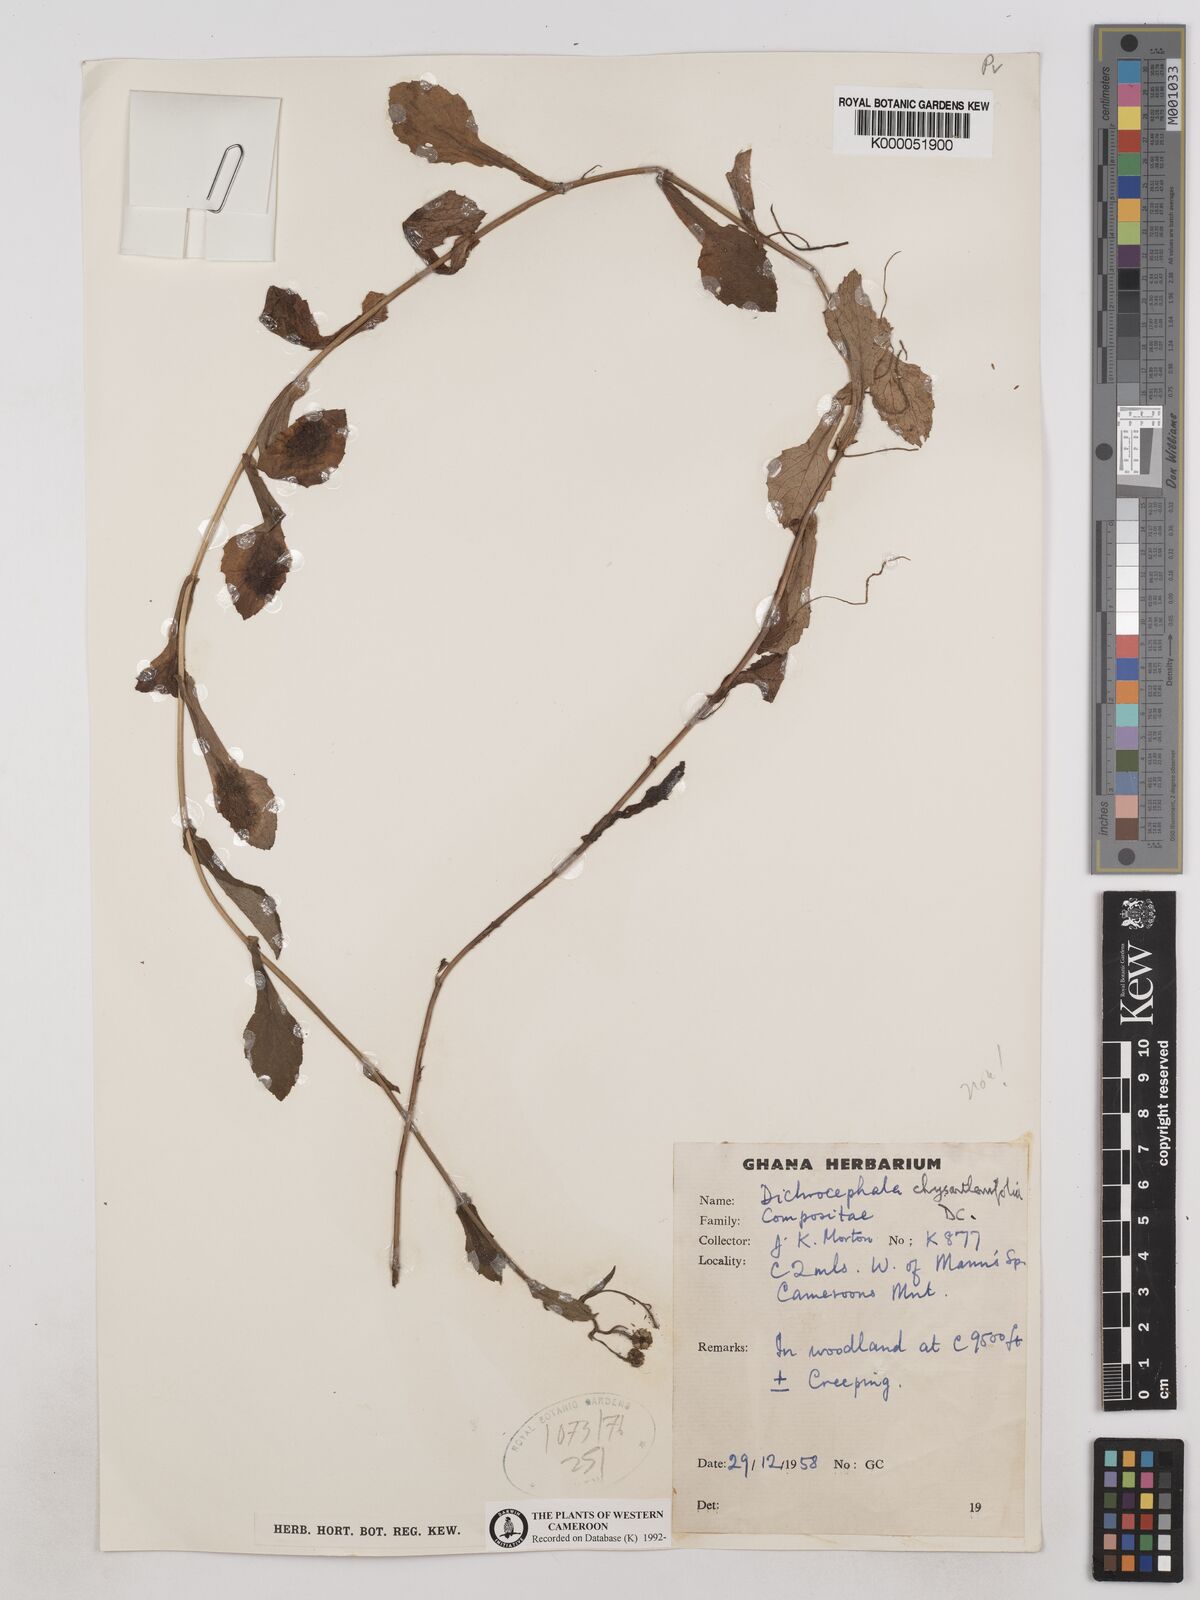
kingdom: Plantae
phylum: Tracheophyta
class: Magnoliopsida
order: Asterales
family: Asteraceae
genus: Dichrocephala
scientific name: Dichrocephala chrysanthemifolia
